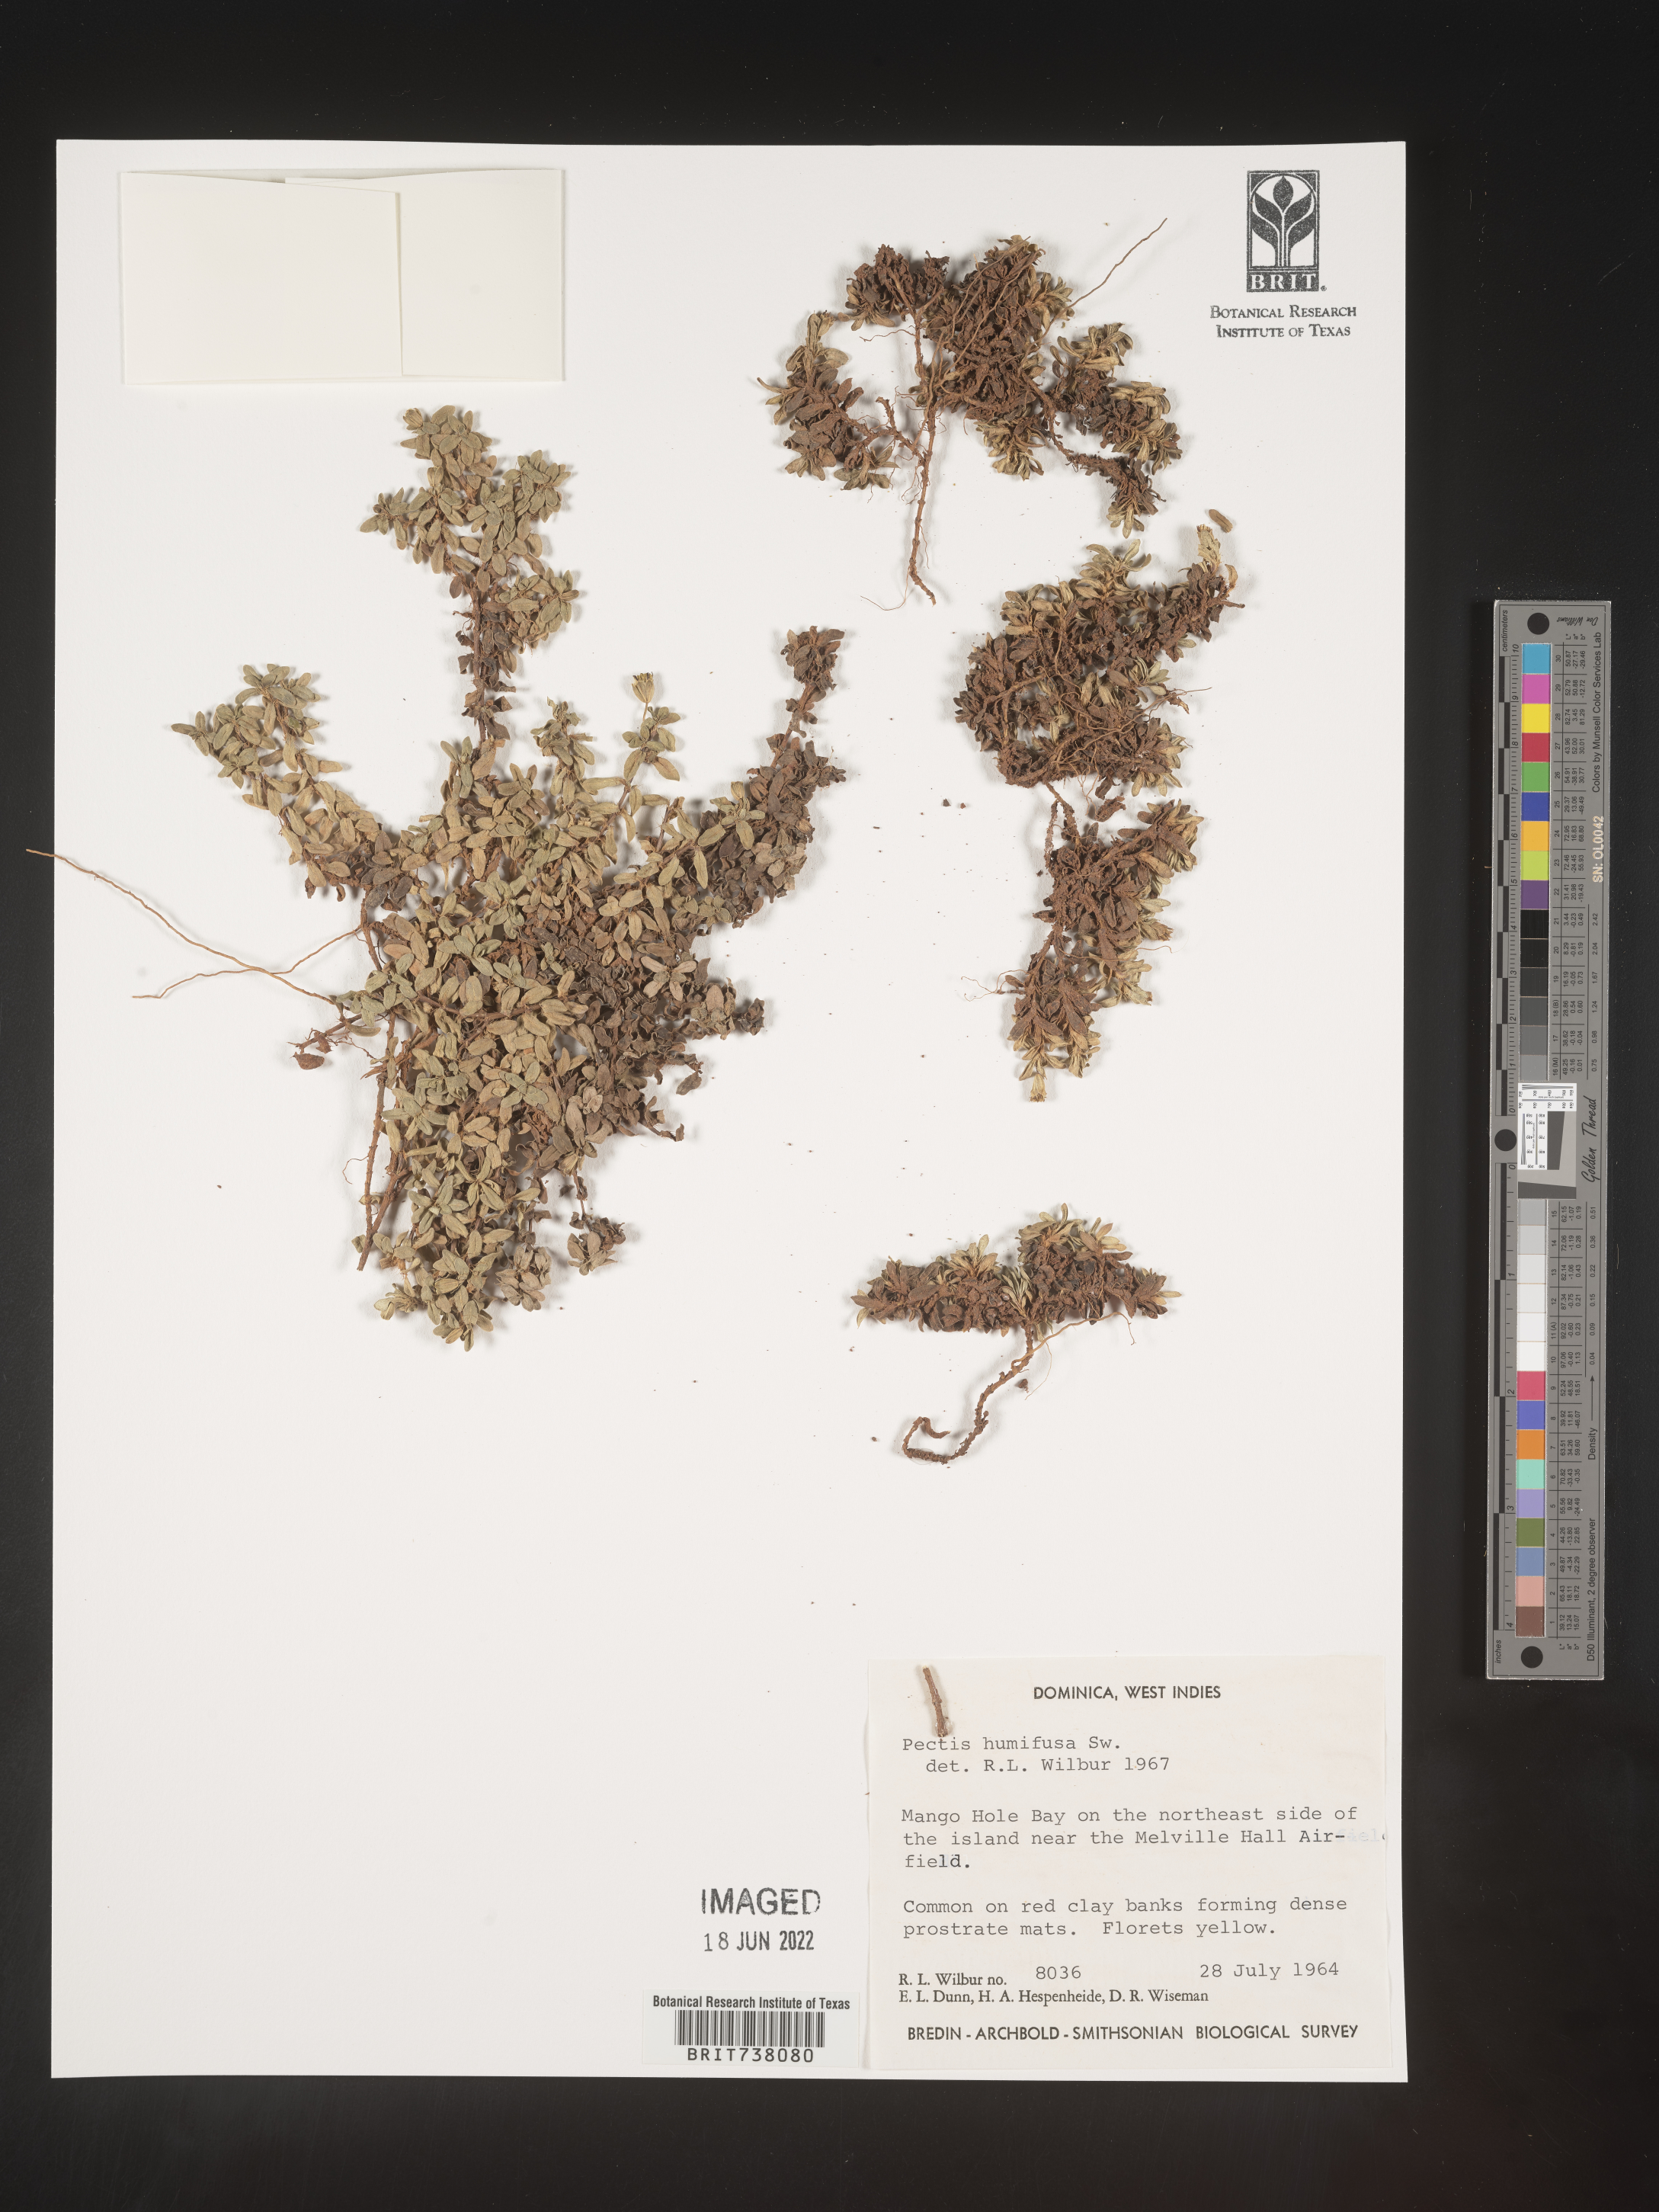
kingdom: Plantae
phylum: Tracheophyta
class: Magnoliopsida
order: Asterales
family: Asteraceae
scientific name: Asteraceae
